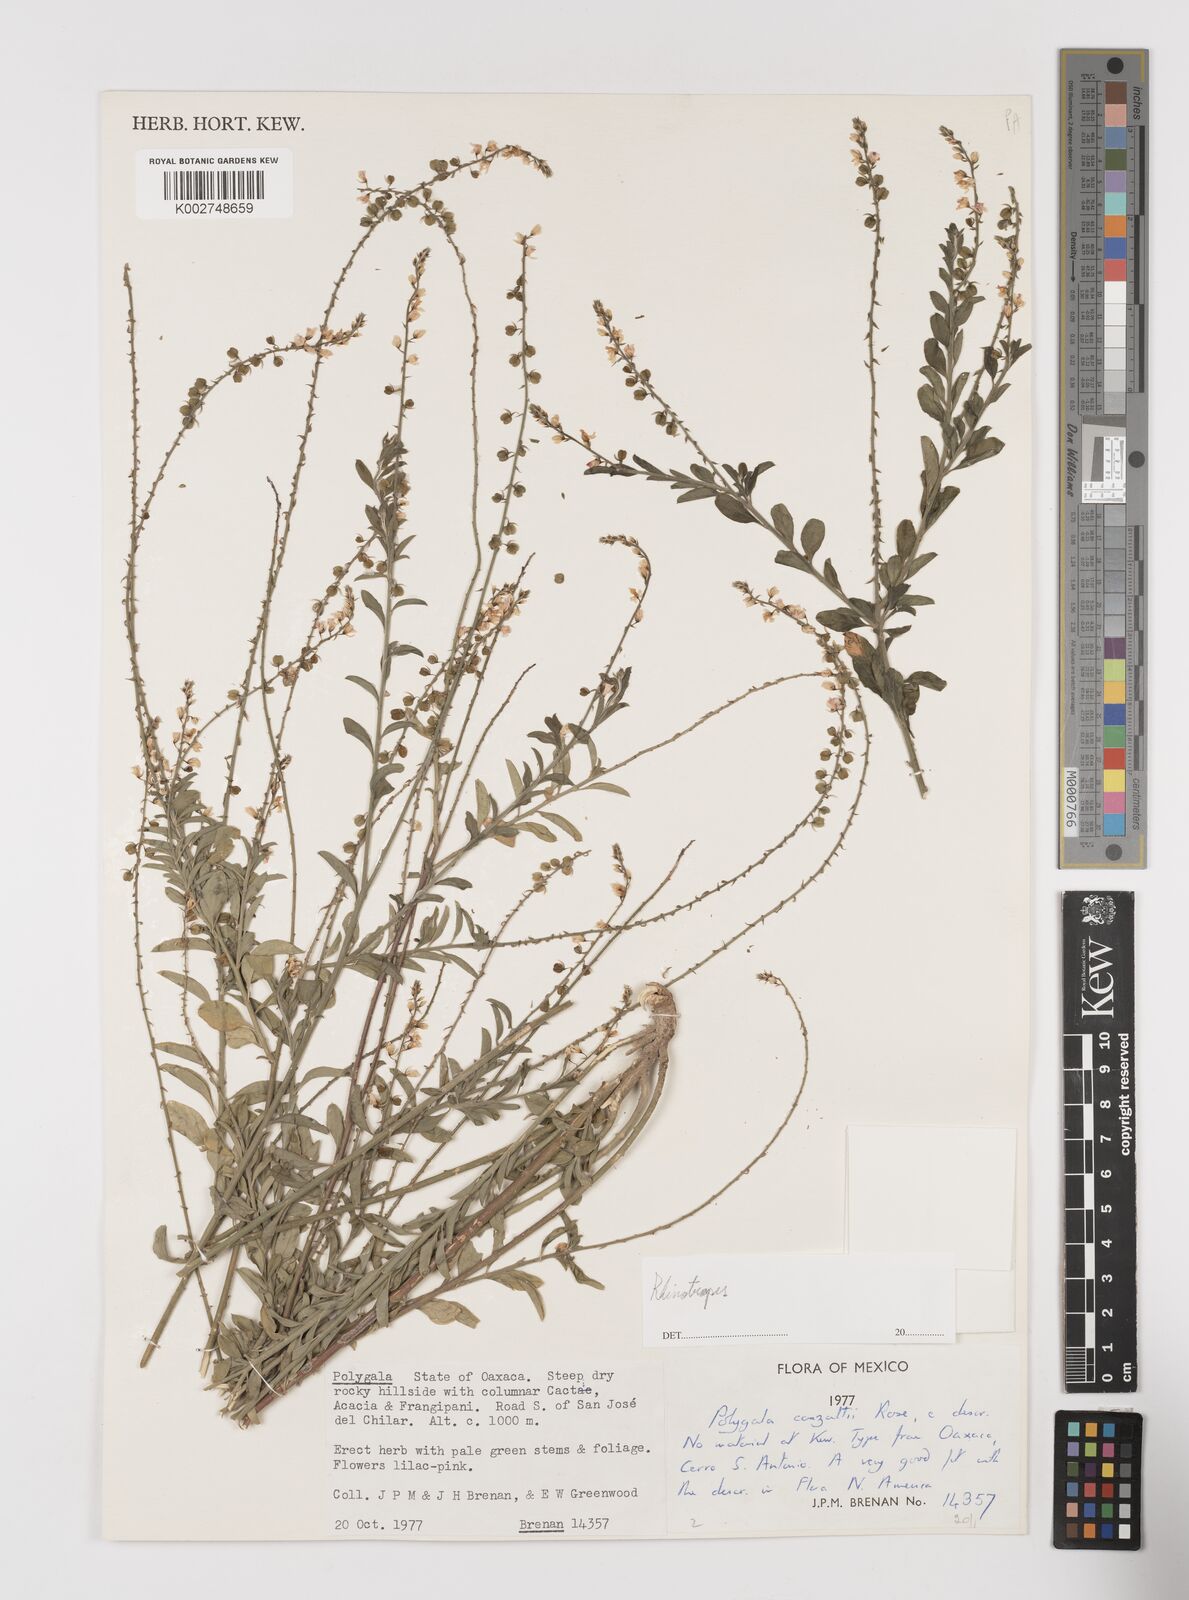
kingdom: Plantae
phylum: Tracheophyta
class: Magnoliopsida
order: Fabales
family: Polygalaceae
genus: Rhinotropis
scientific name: Rhinotropis
